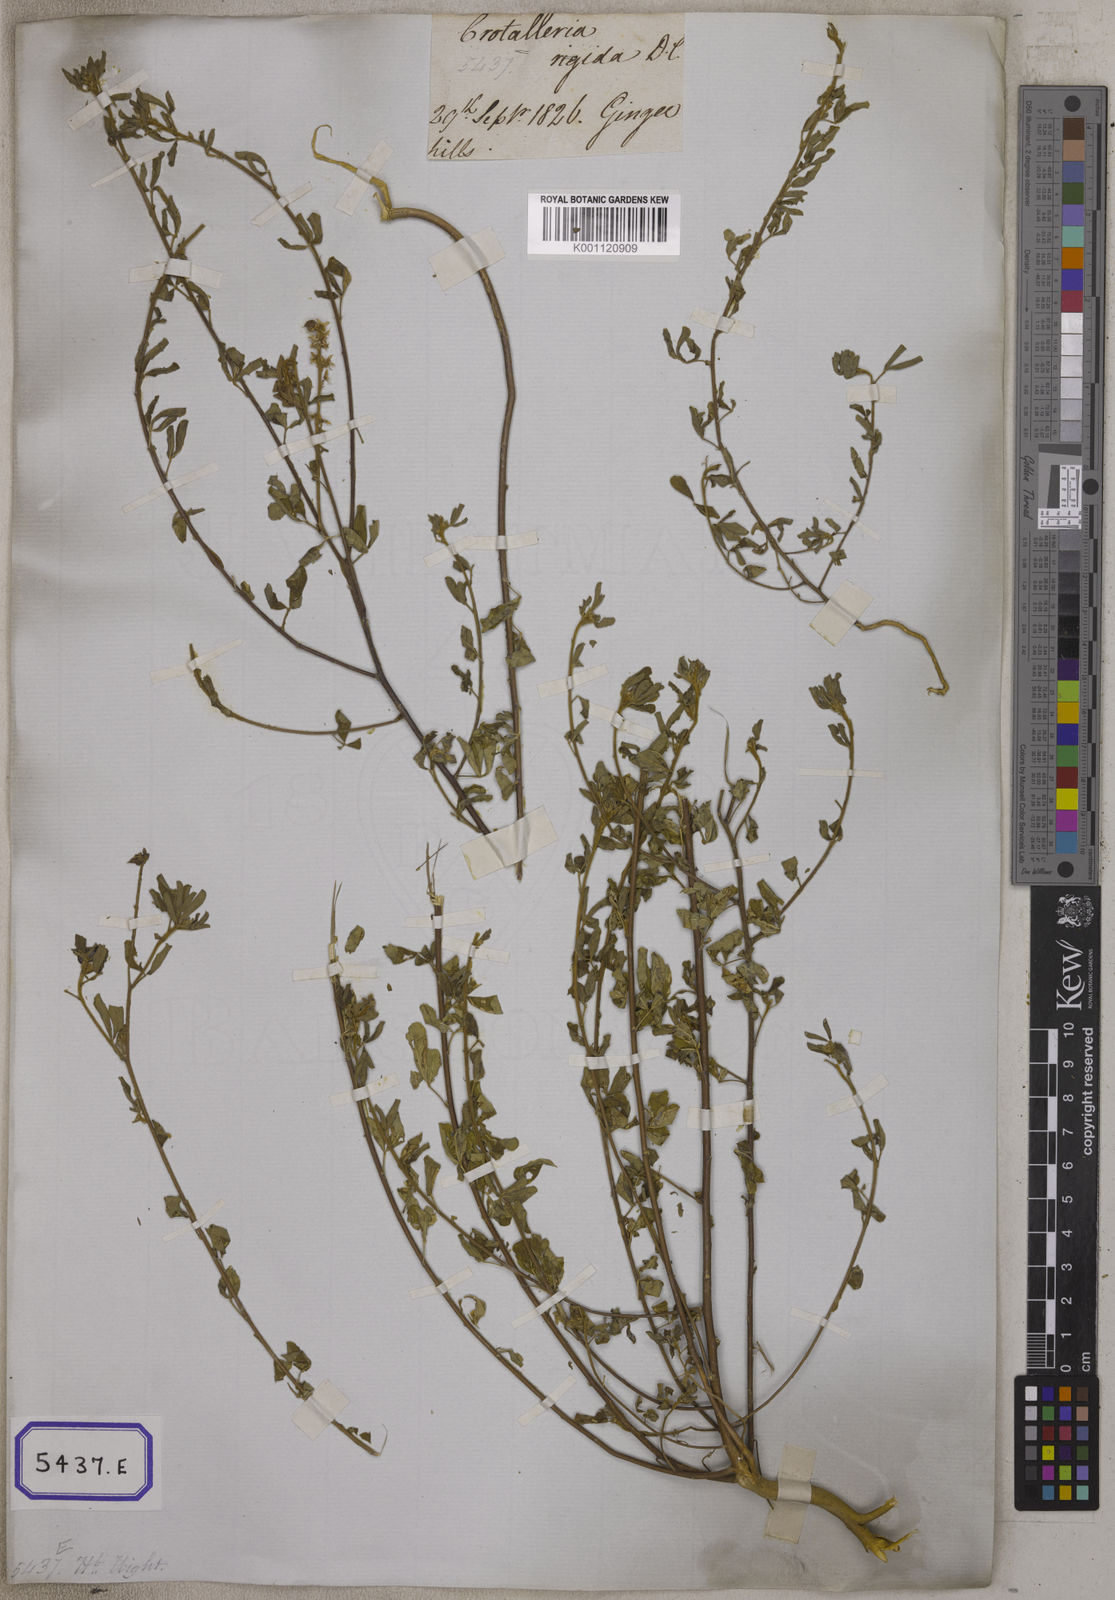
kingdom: Plantae
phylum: Tracheophyta
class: Magnoliopsida
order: Fabales
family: Fabaceae
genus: Crotalaria
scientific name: Crotalaria
